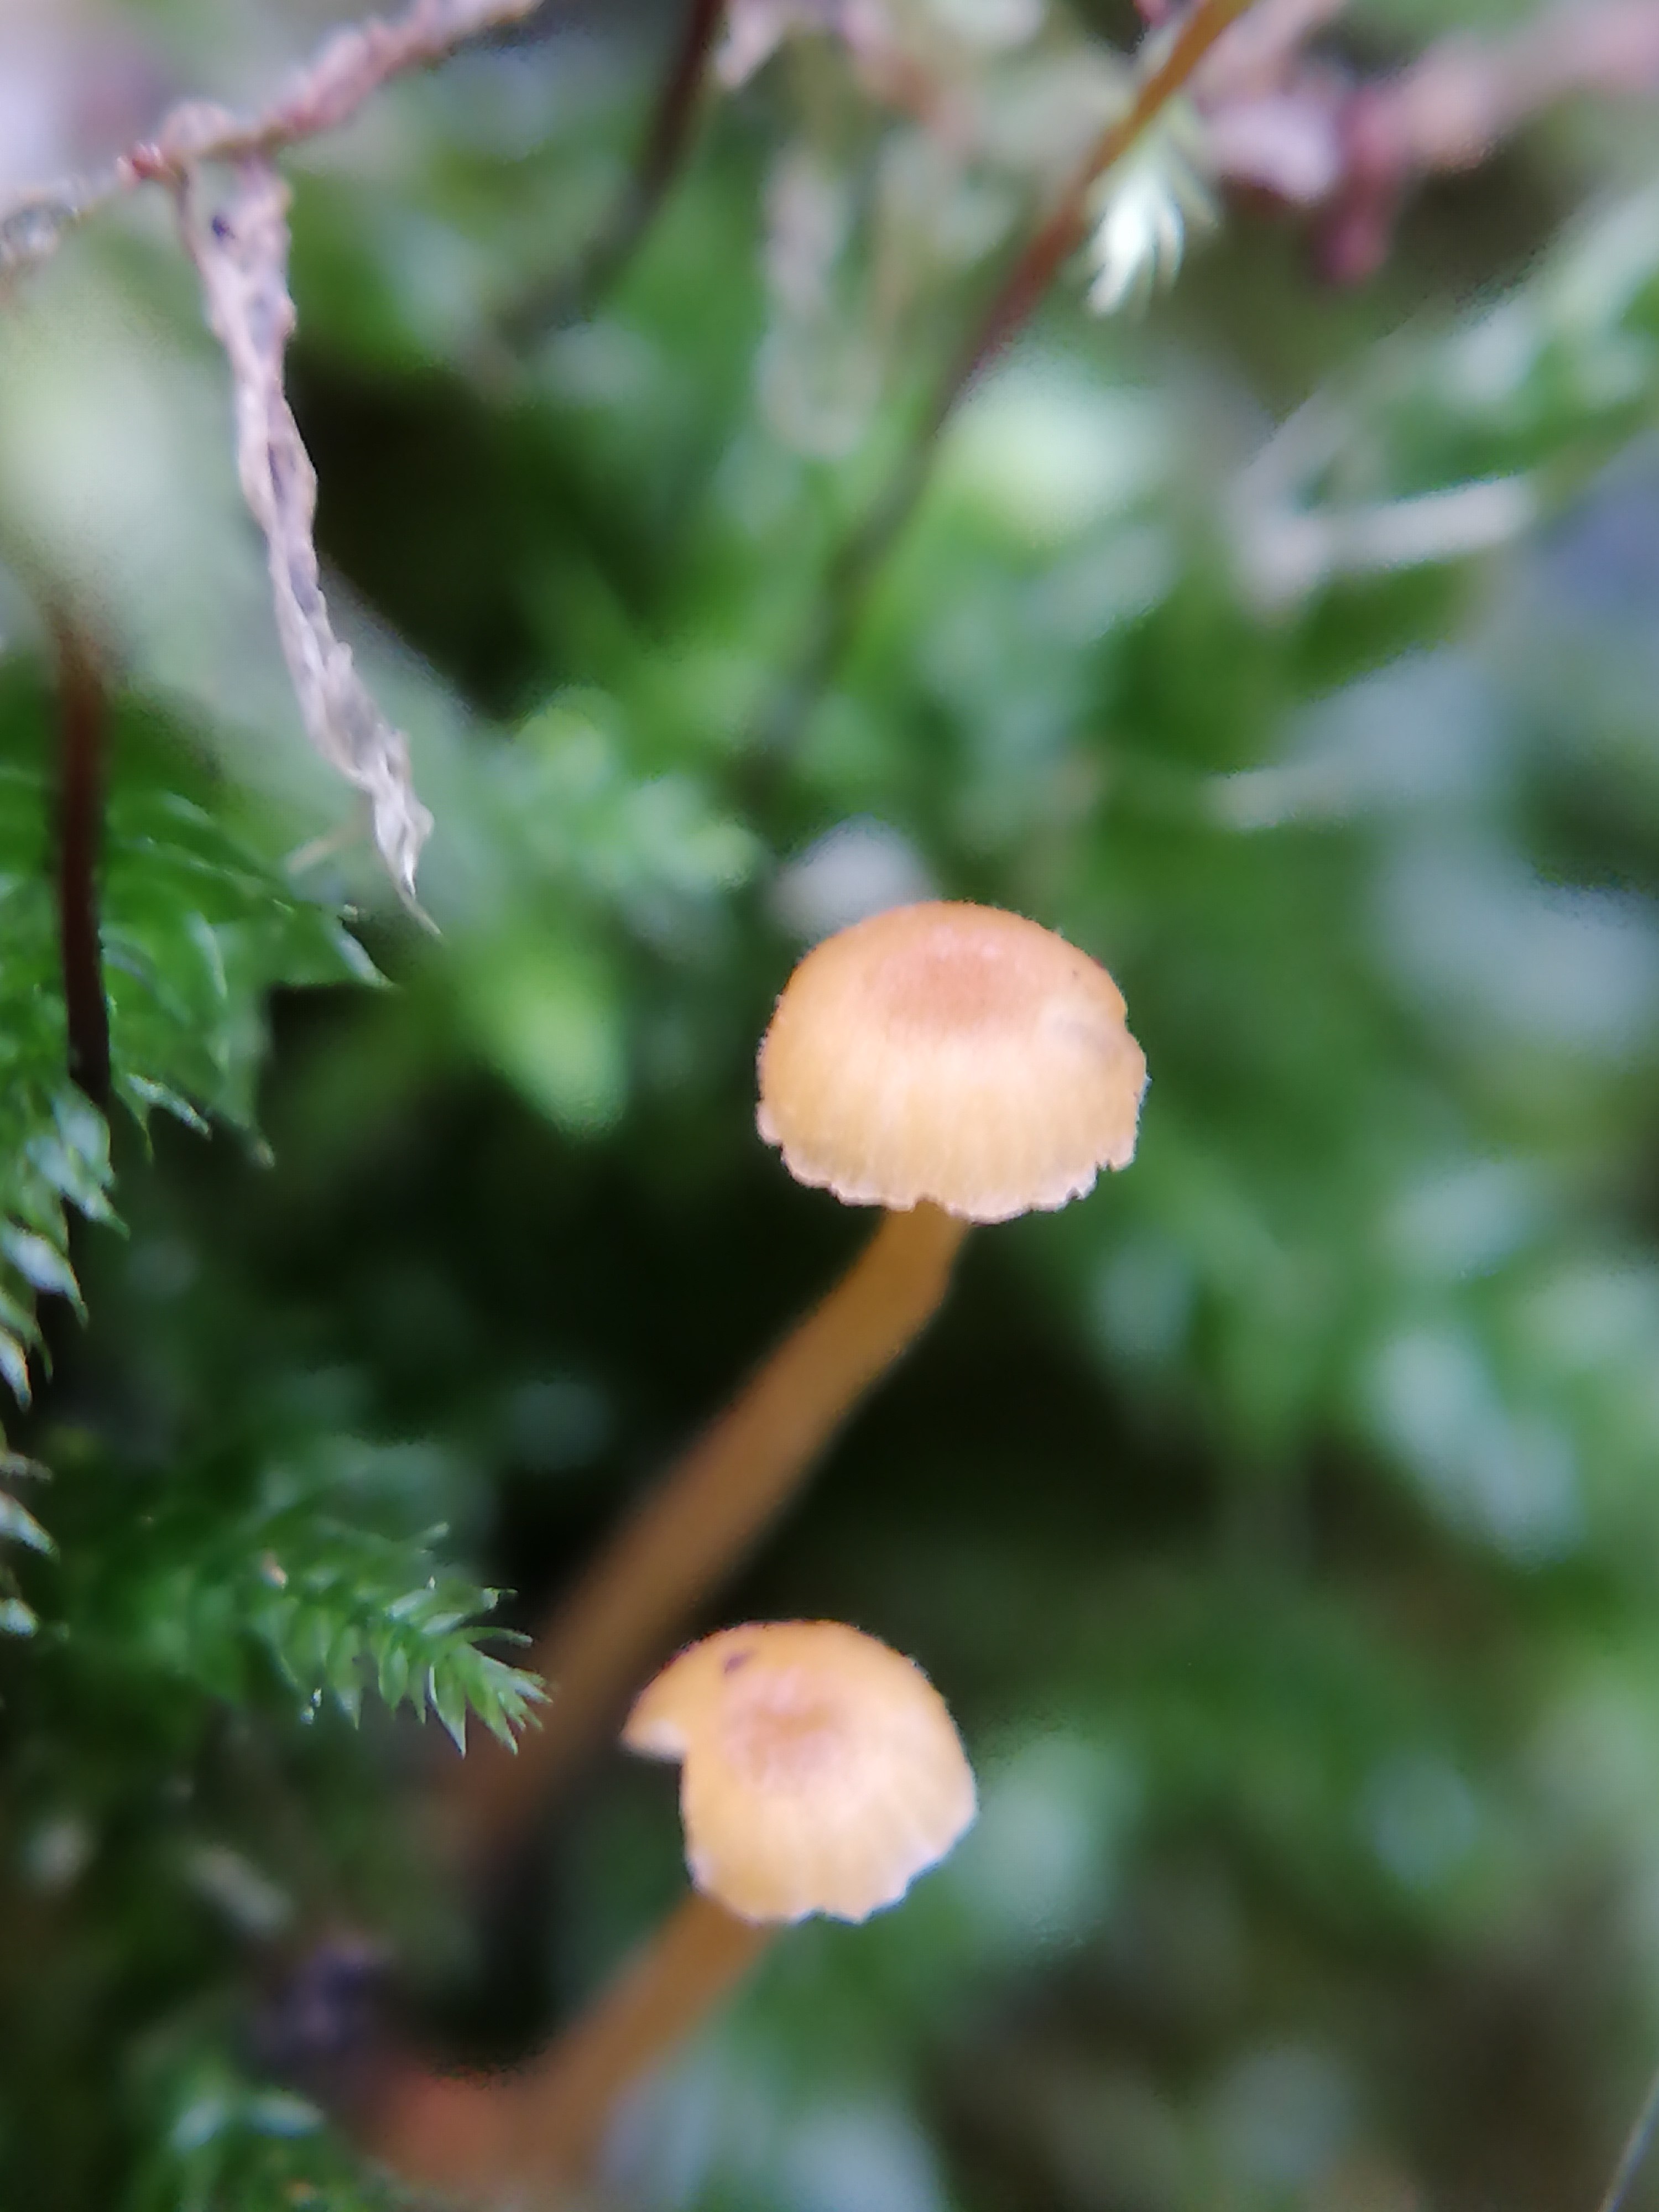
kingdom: Fungi
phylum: Basidiomycota
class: Agaricomycetes
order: Hymenochaetales
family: Rickenellaceae
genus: Rickenella
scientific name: Rickenella fibula
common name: orange mosnavlehat
